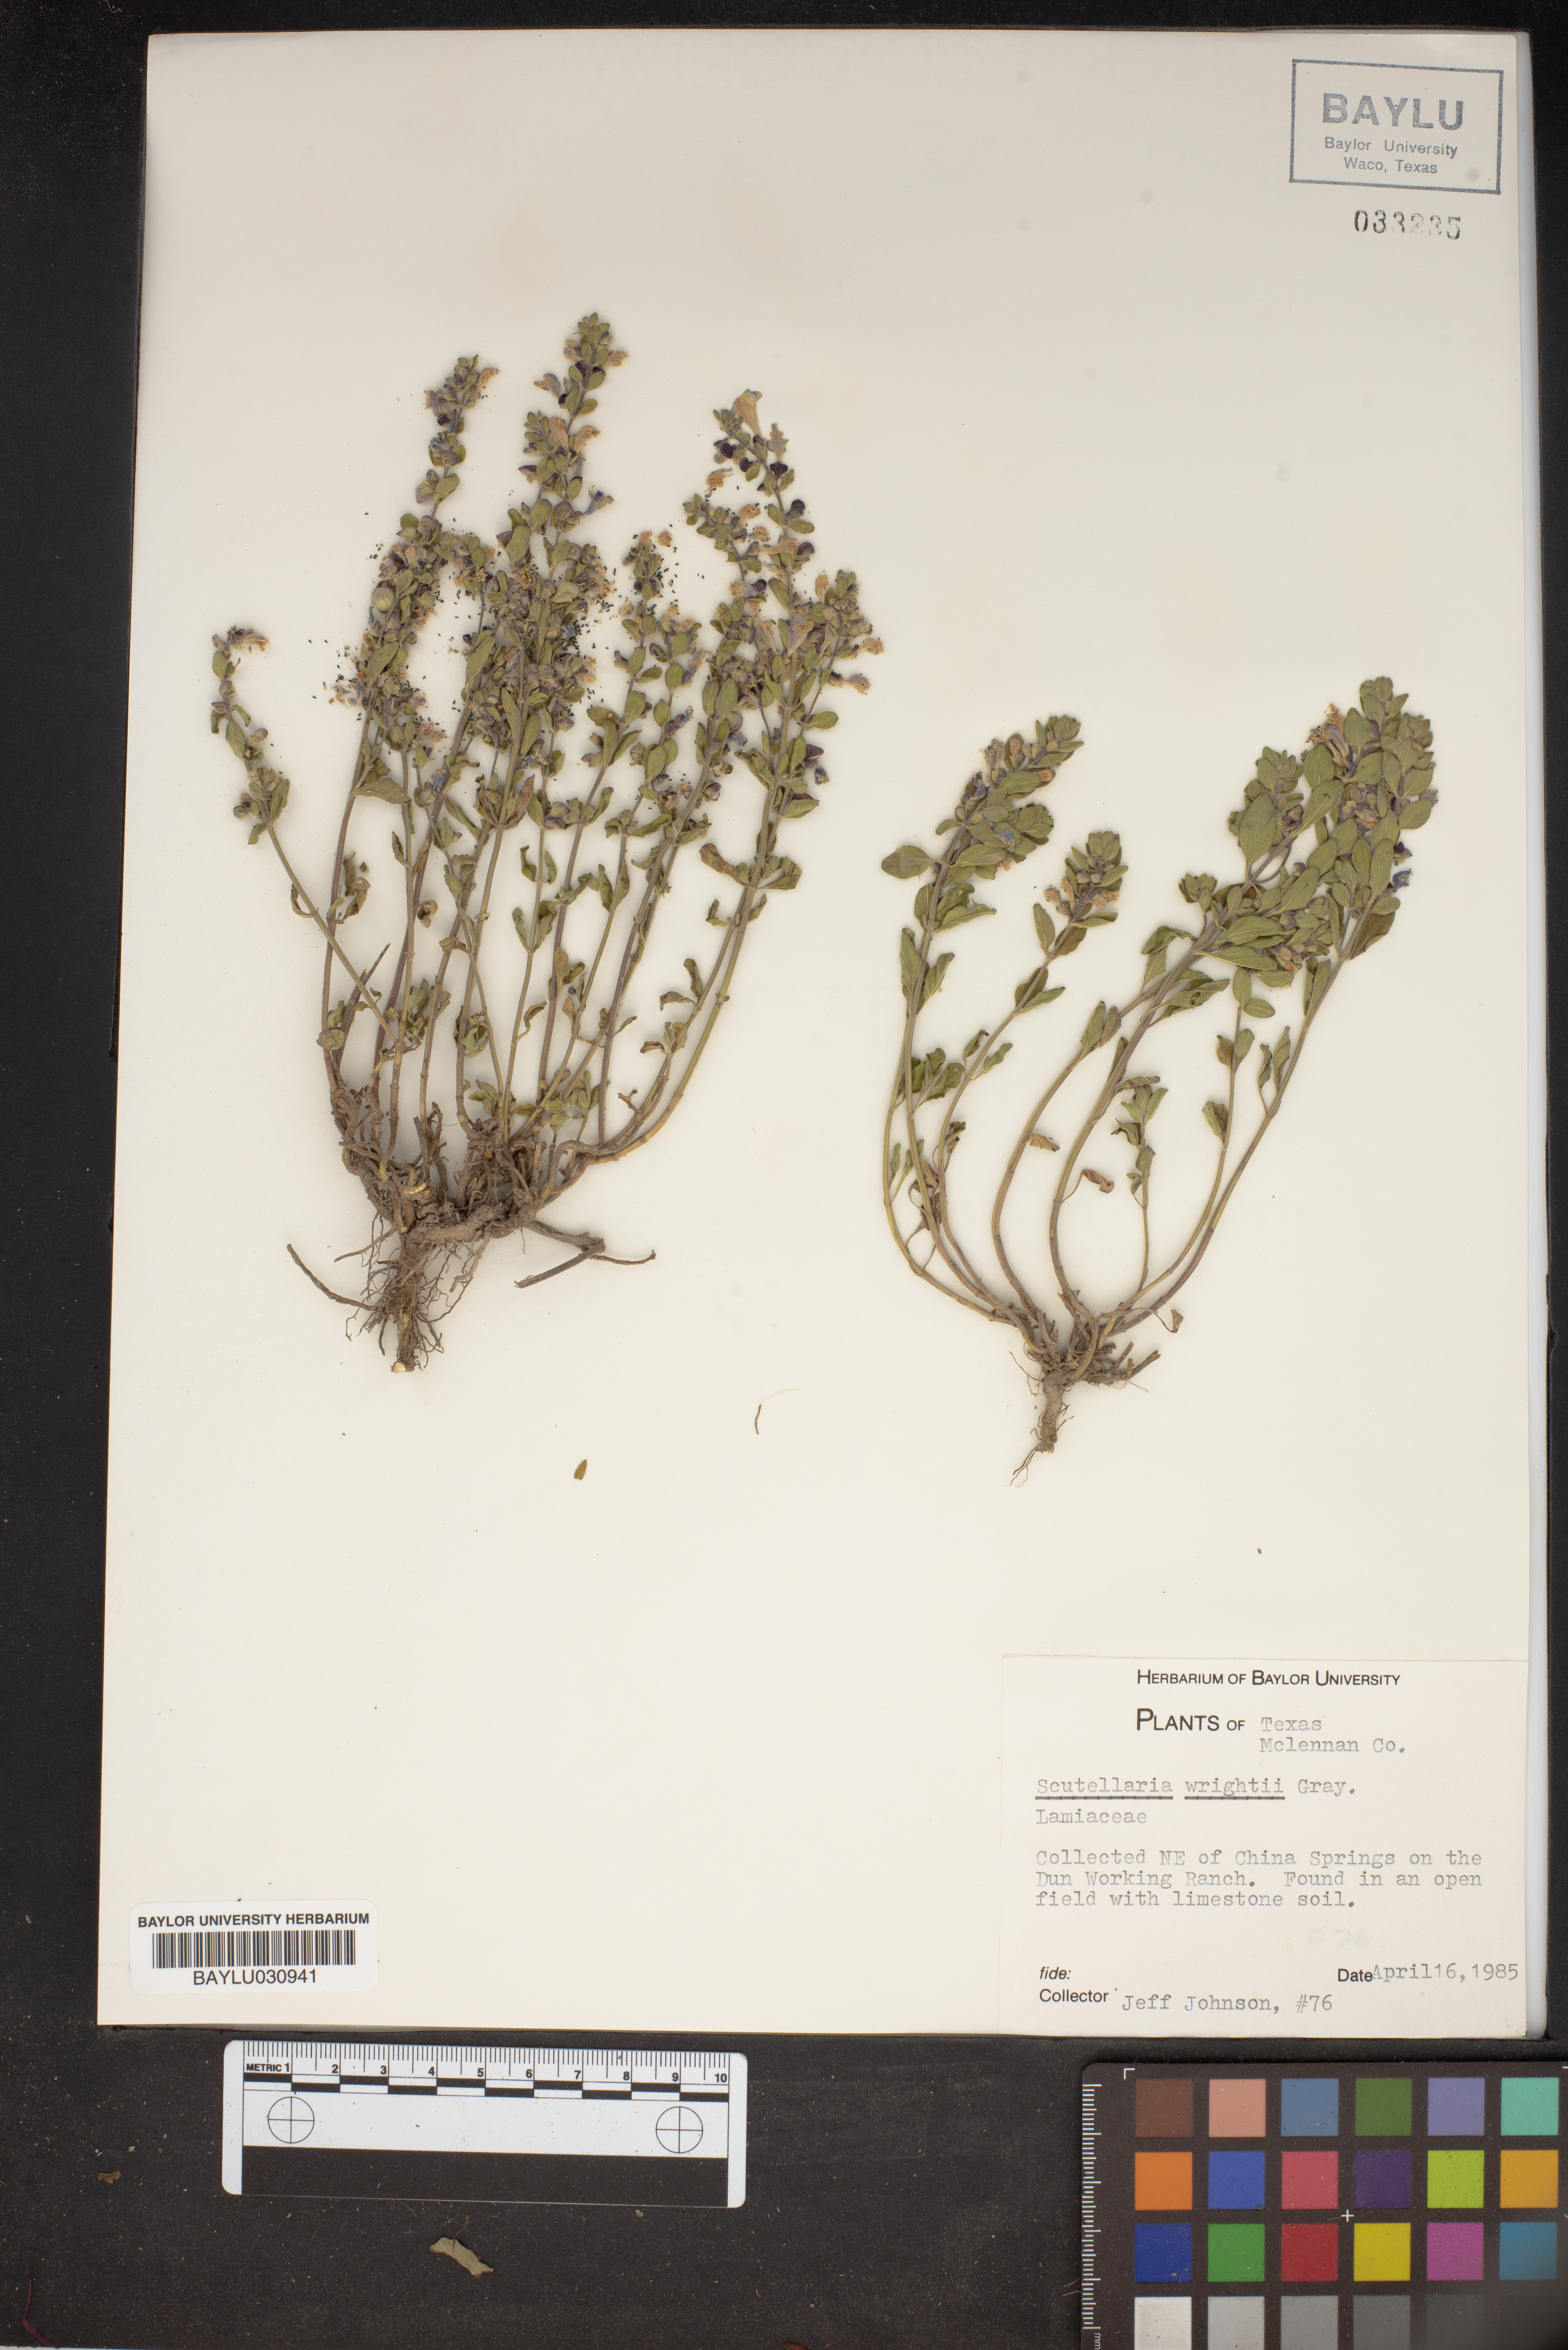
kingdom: Plantae
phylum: Tracheophyta
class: Magnoliopsida
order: Lamiales
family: Lamiaceae
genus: Scutellaria
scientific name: Scutellaria wrightii
